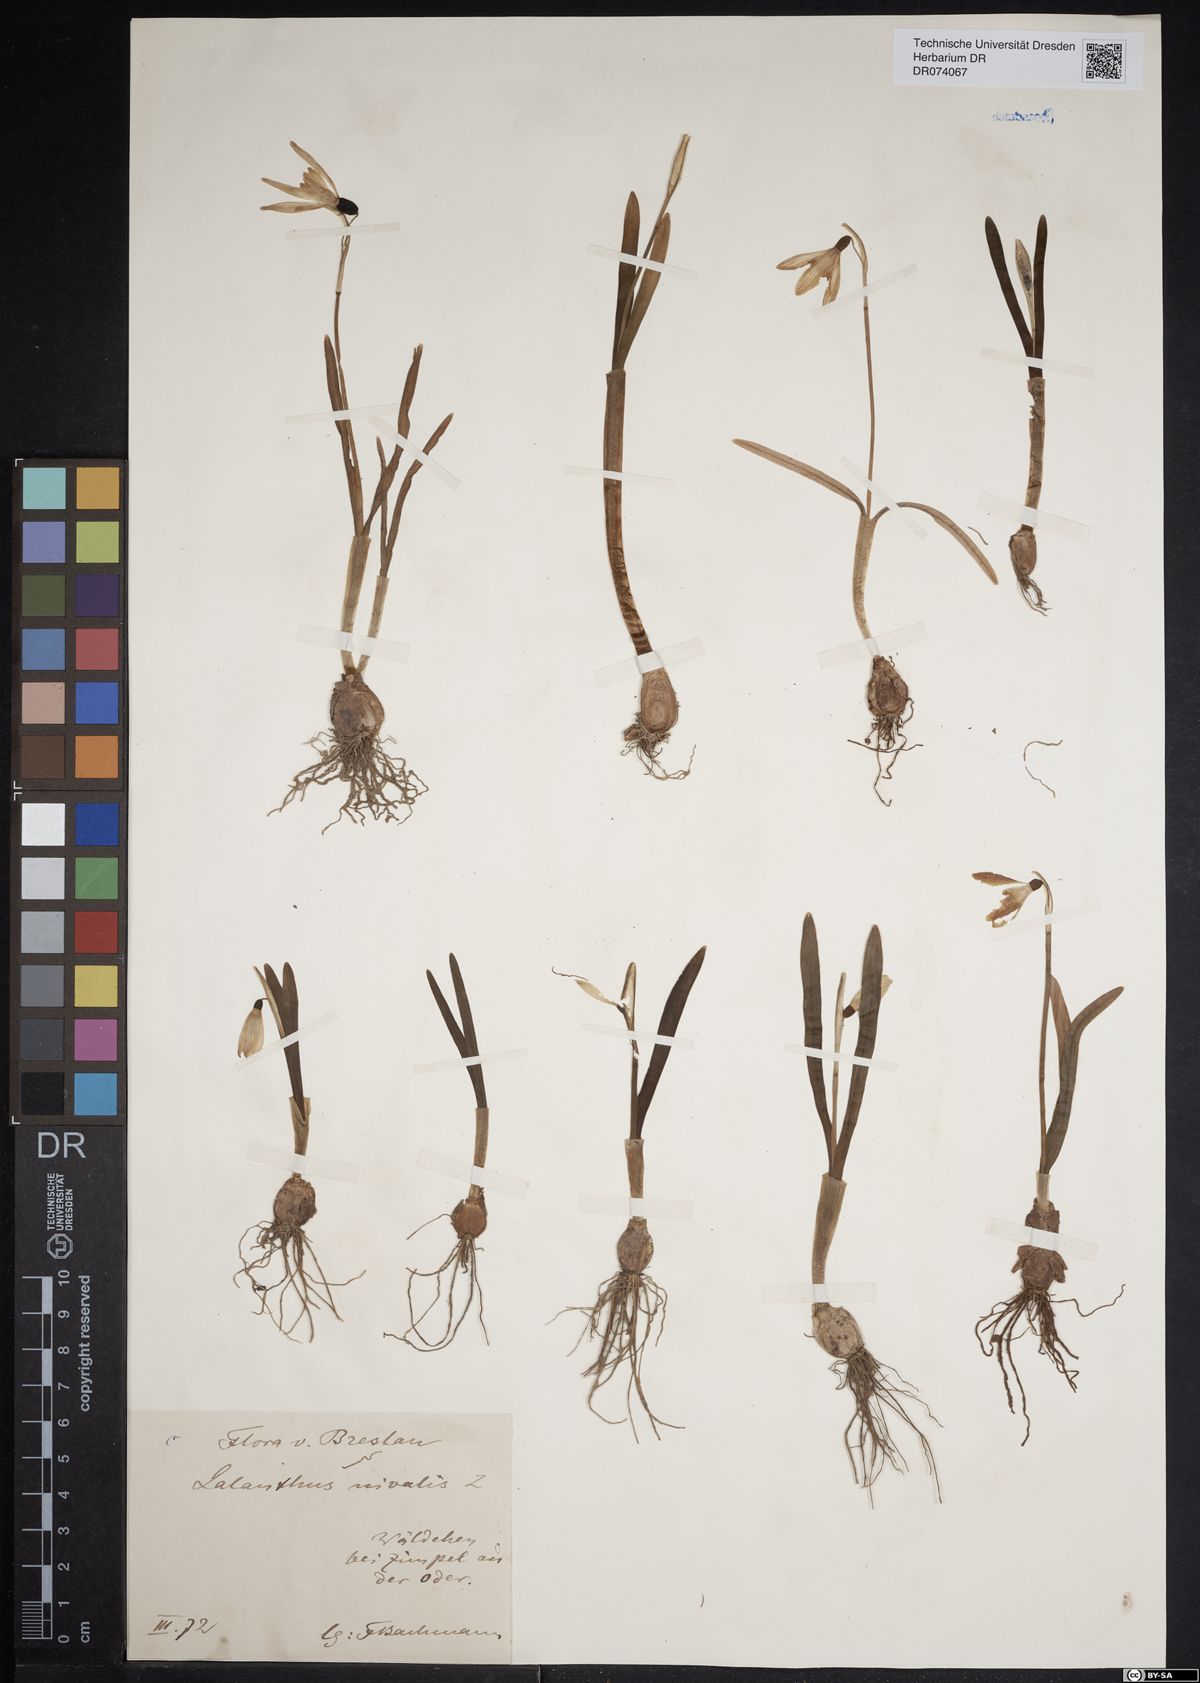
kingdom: Plantae
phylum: Tracheophyta
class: Liliopsida
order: Asparagales
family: Amaryllidaceae
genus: Galanthus
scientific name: Galanthus nivalis
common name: Snowdrop
